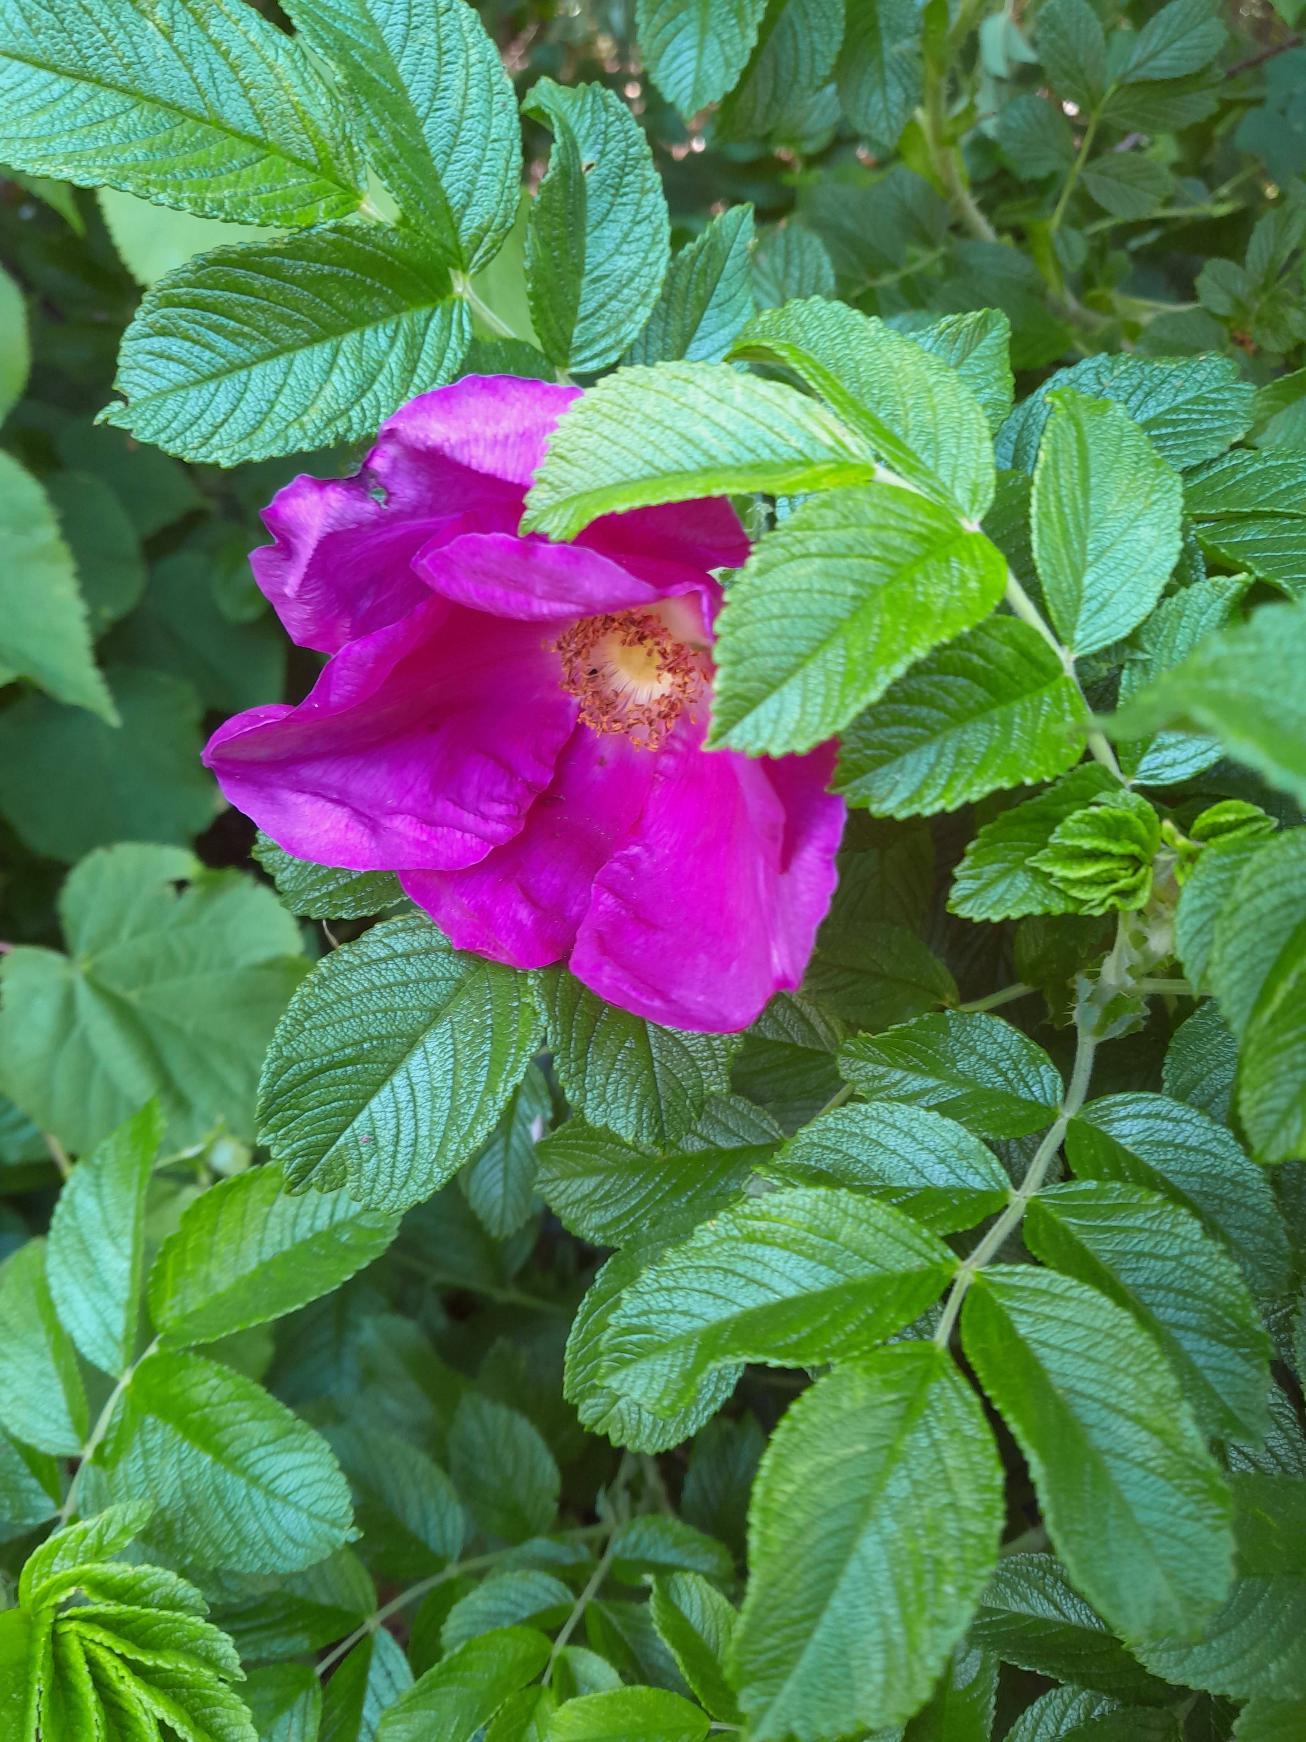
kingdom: Plantae
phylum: Tracheophyta
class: Magnoliopsida
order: Rosales
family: Rosaceae
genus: Rosa
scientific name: Rosa rugosa
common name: Rynket rose
